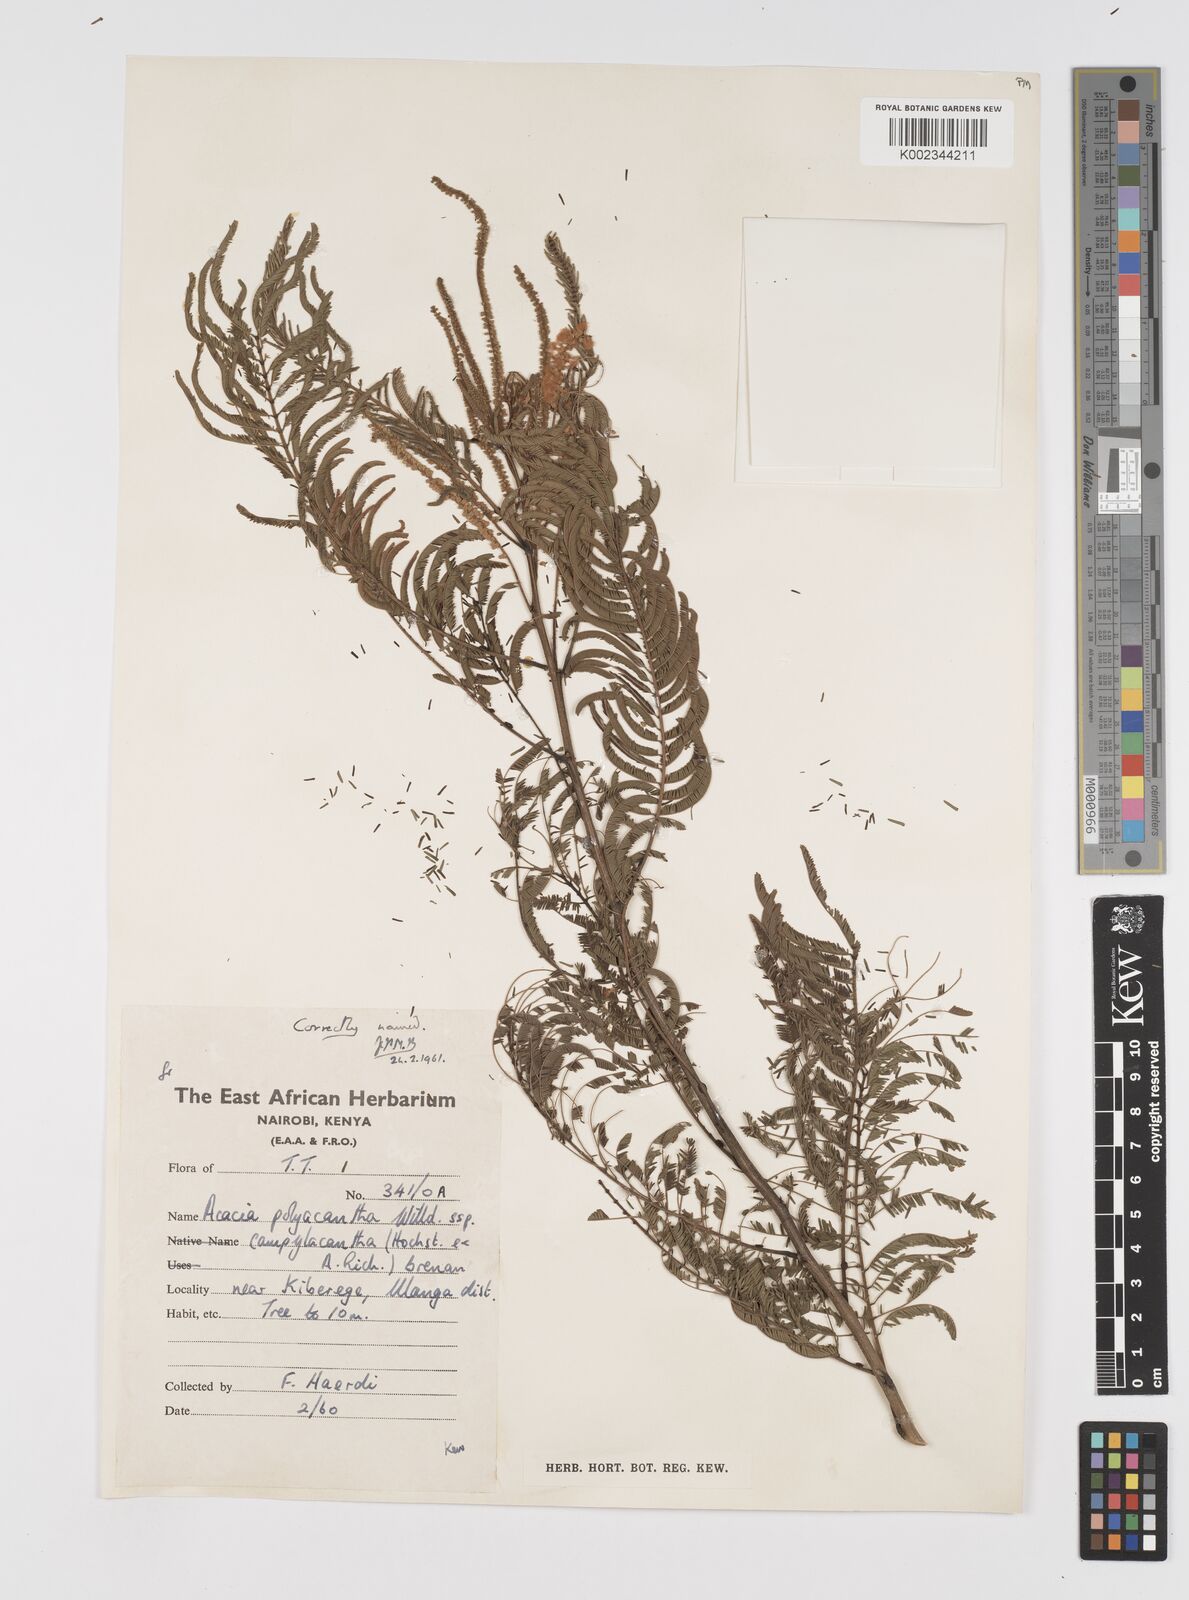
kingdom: Plantae
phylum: Tracheophyta
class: Magnoliopsida
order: Fabales
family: Fabaceae
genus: Senegalia
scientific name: Senegalia polyacantha
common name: Whitethorn
